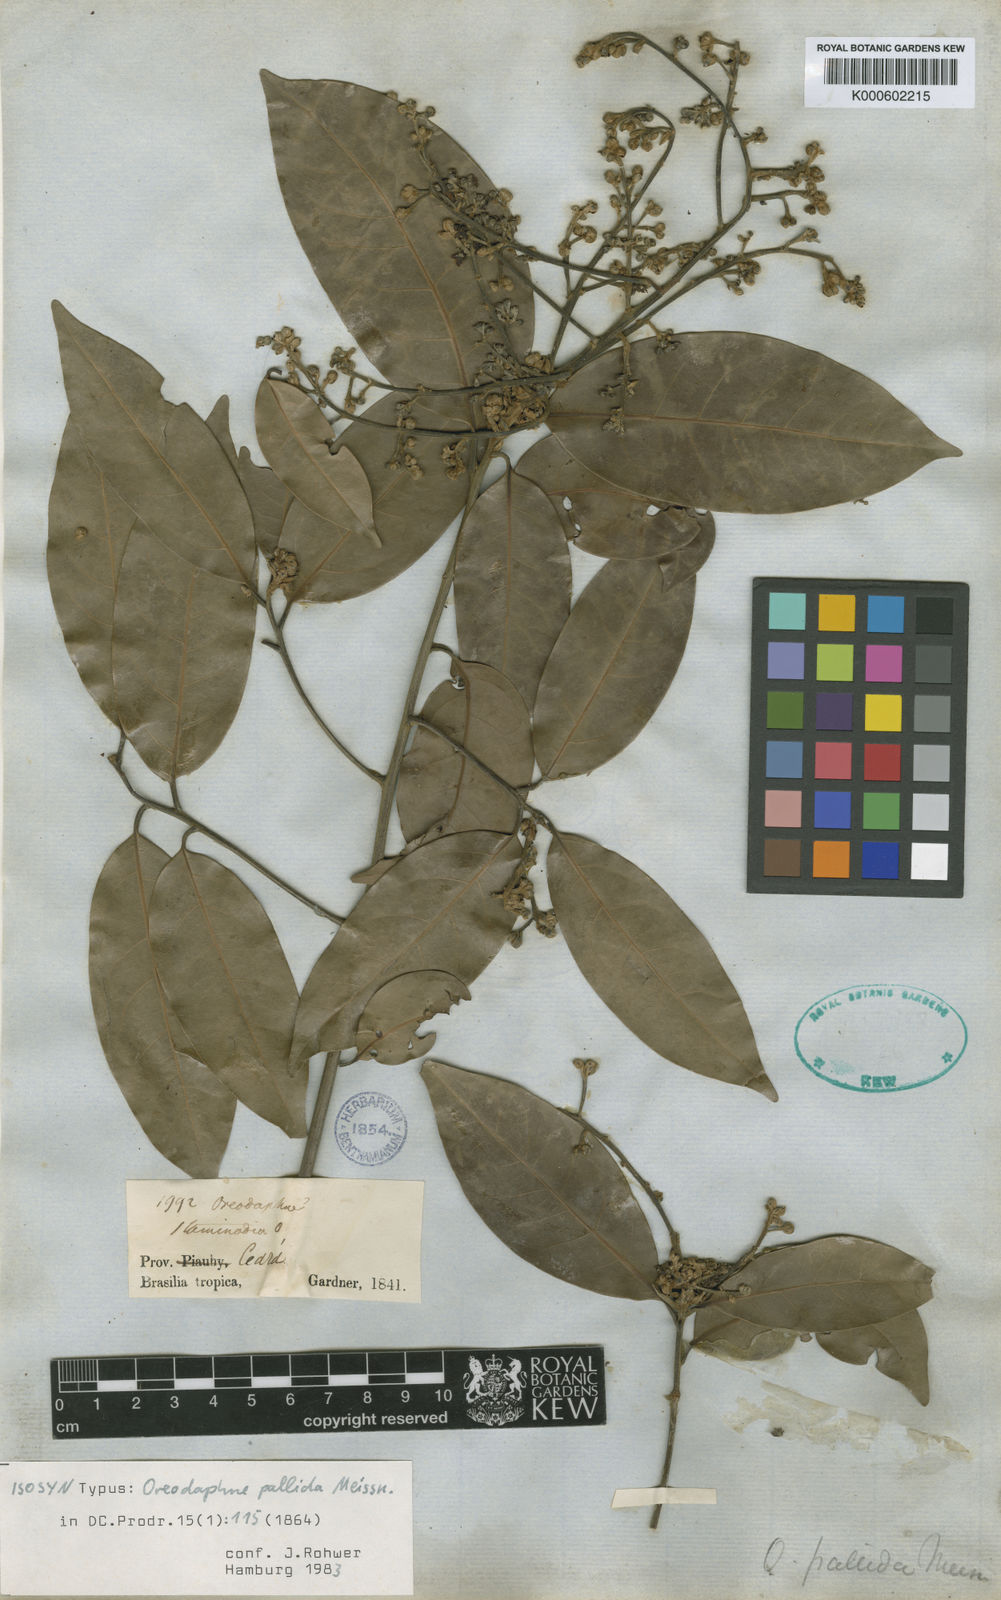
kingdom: Plantae
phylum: Tracheophyta
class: Magnoliopsida
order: Laurales
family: Lauraceae
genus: Ocotea
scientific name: Ocotea nitida
